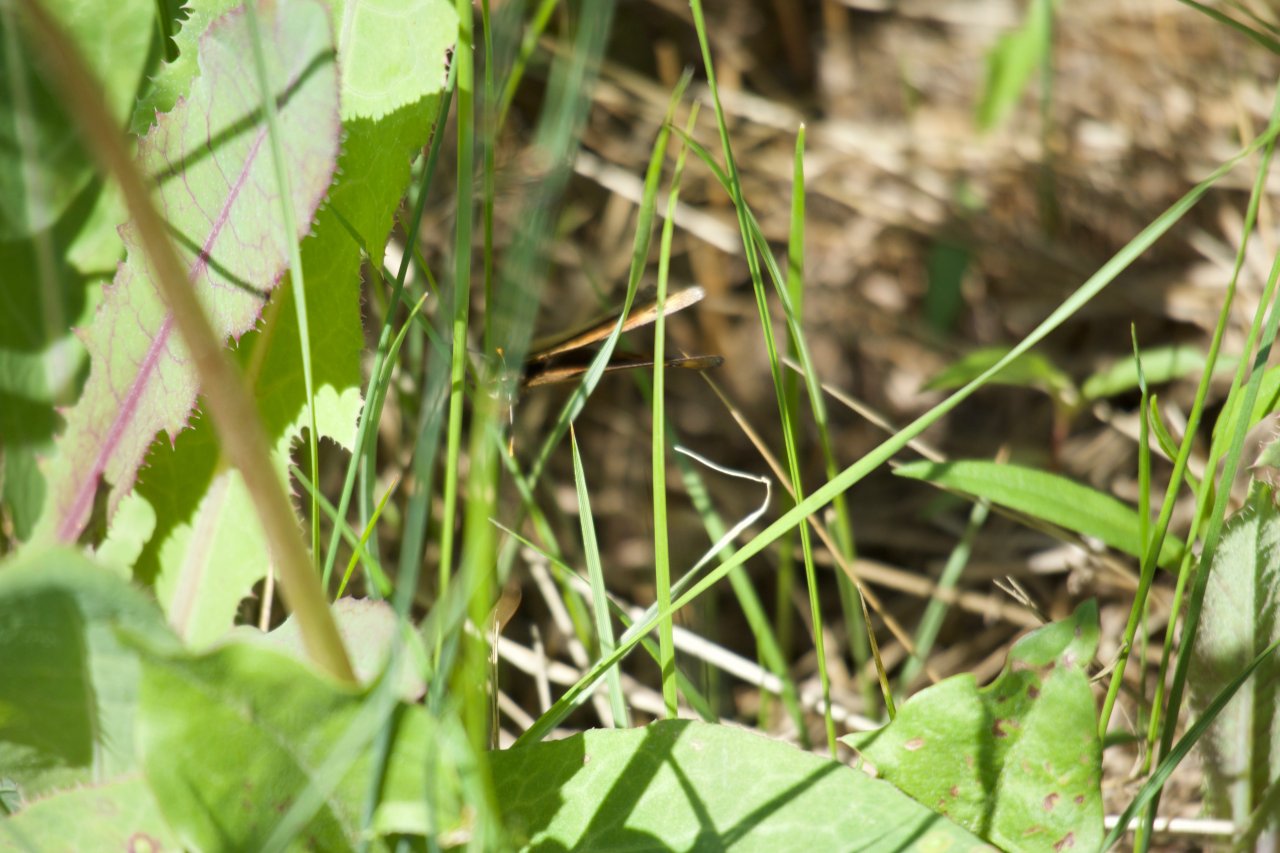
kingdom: Animalia
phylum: Arthropoda
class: Insecta
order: Lepidoptera
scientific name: Lepidoptera
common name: Butterflies
